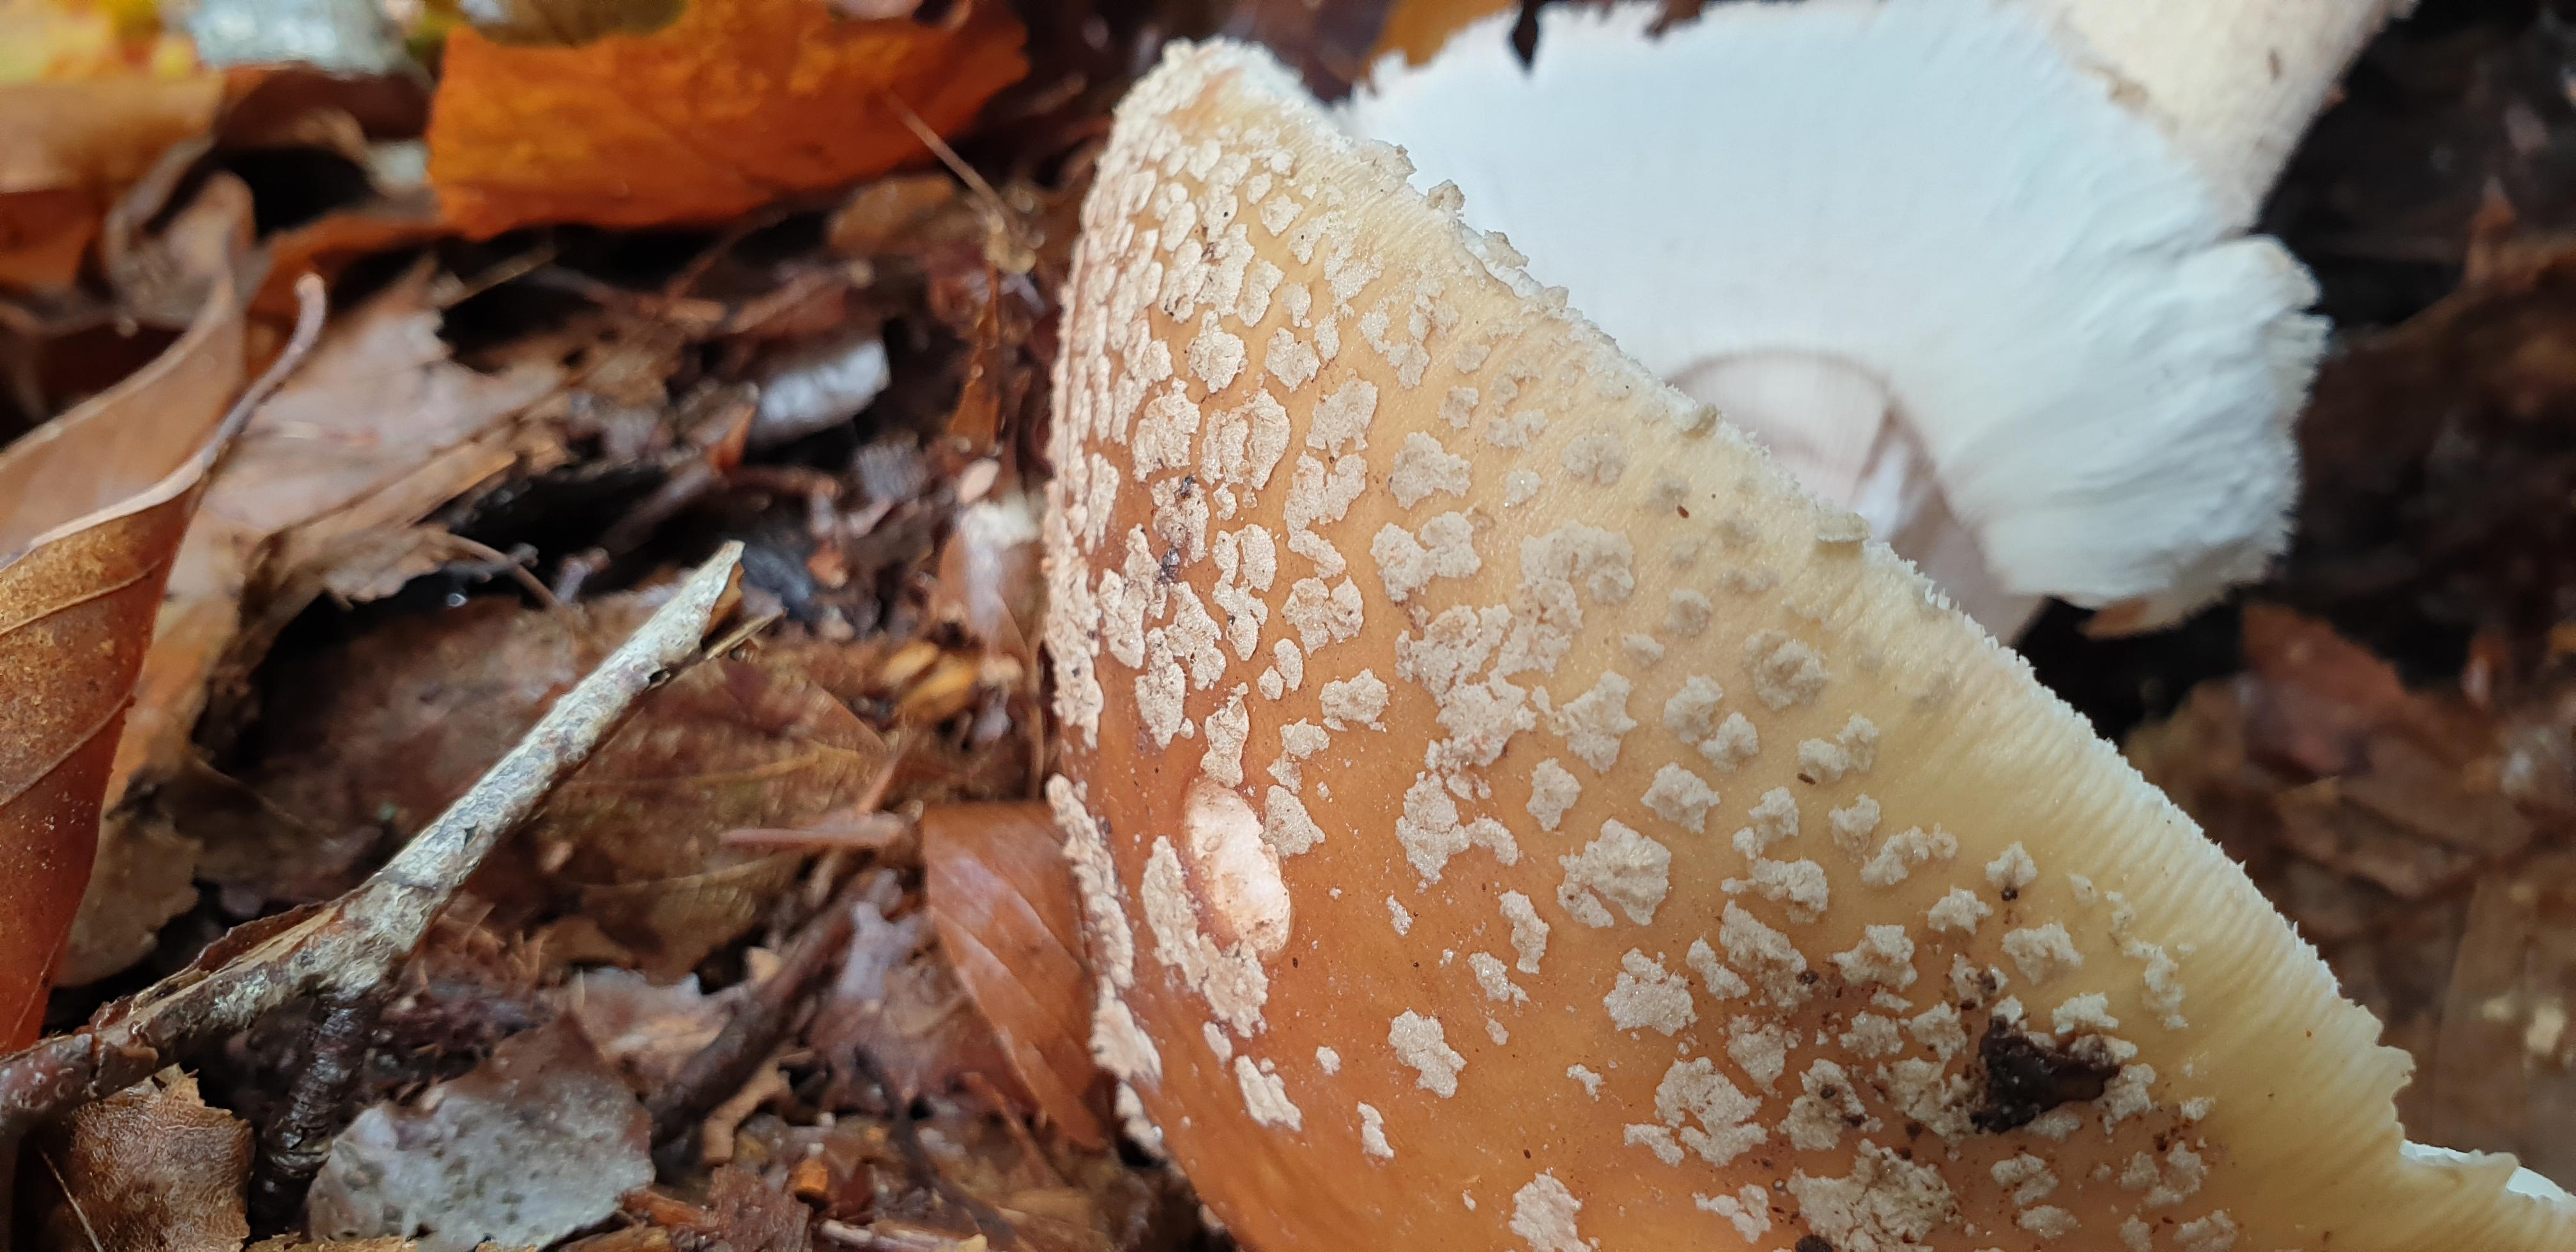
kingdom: Fungi
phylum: Basidiomycota
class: Agaricomycetes
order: Agaricales
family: Amanitaceae
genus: Amanita
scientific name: Amanita rubescens
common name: rødmende fluesvamp
